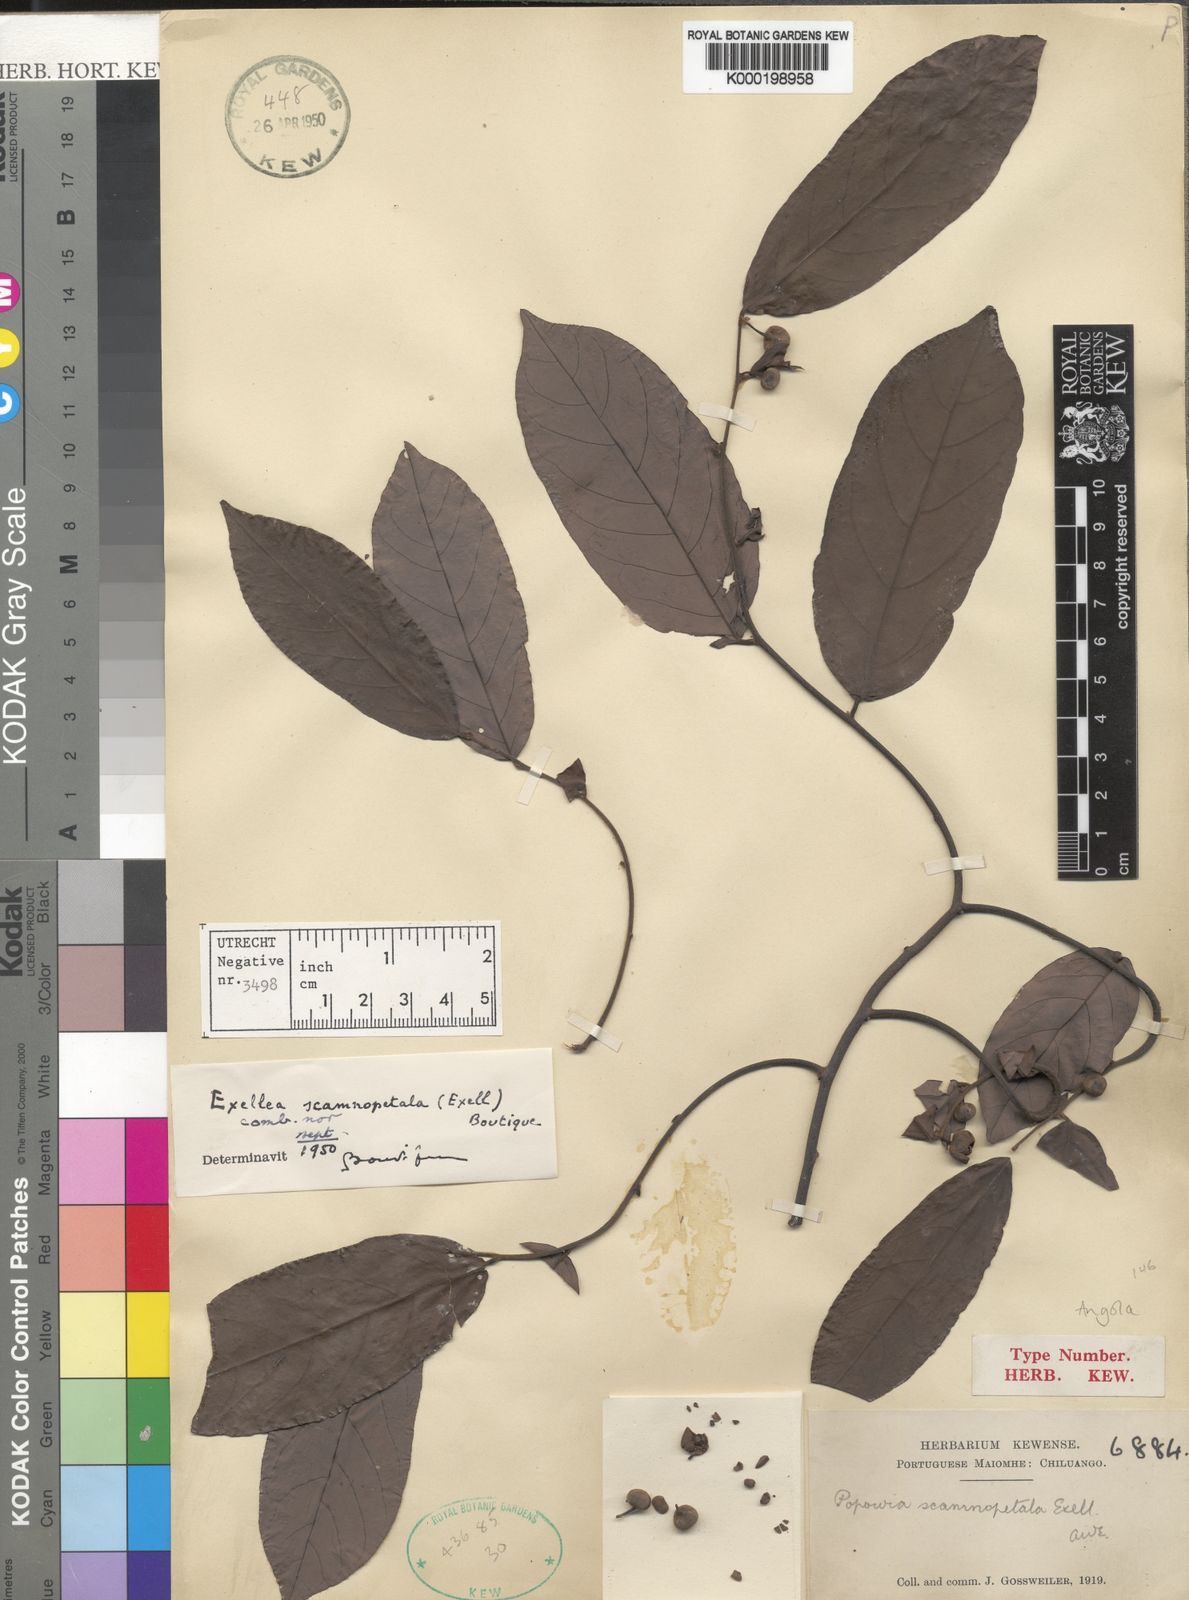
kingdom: Plantae
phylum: Tracheophyta
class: Magnoliopsida
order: Magnoliales
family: Annonaceae
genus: Exellia
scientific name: Exellia scamnopetala
